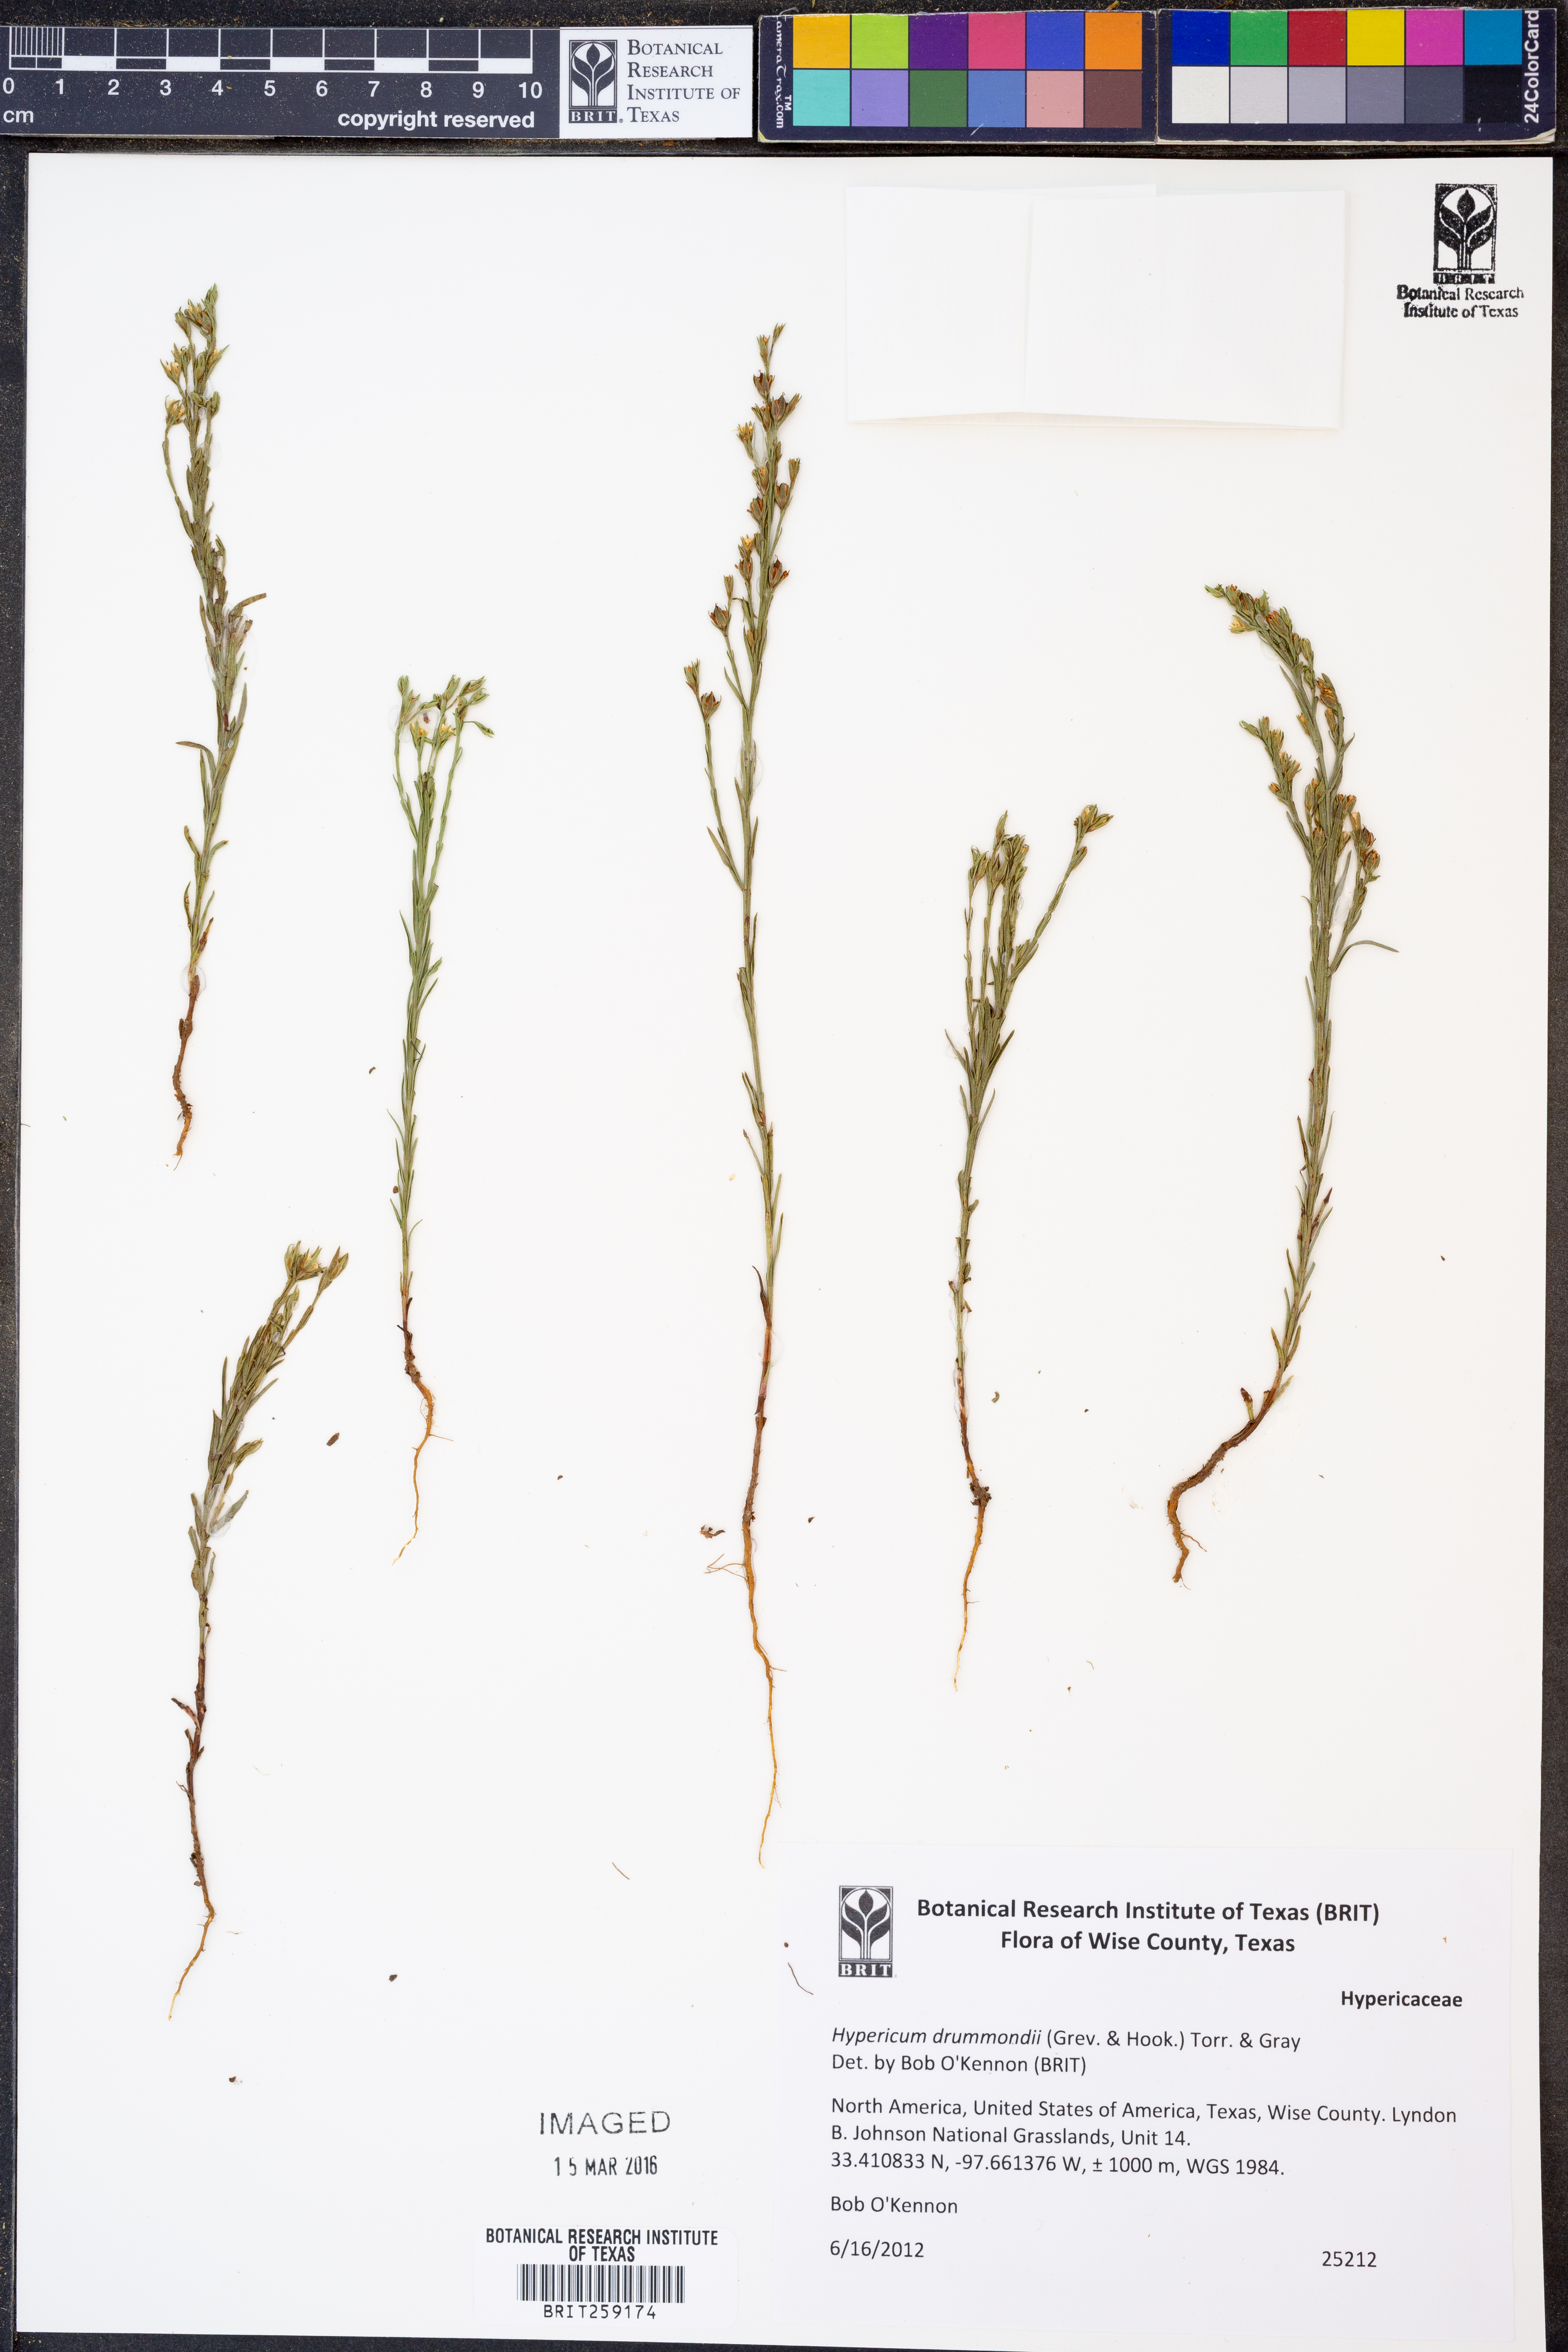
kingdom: Plantae
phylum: Tracheophyta
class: Magnoliopsida
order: Malpighiales
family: Hypericaceae
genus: Hypericum
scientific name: Hypericum drummondii
